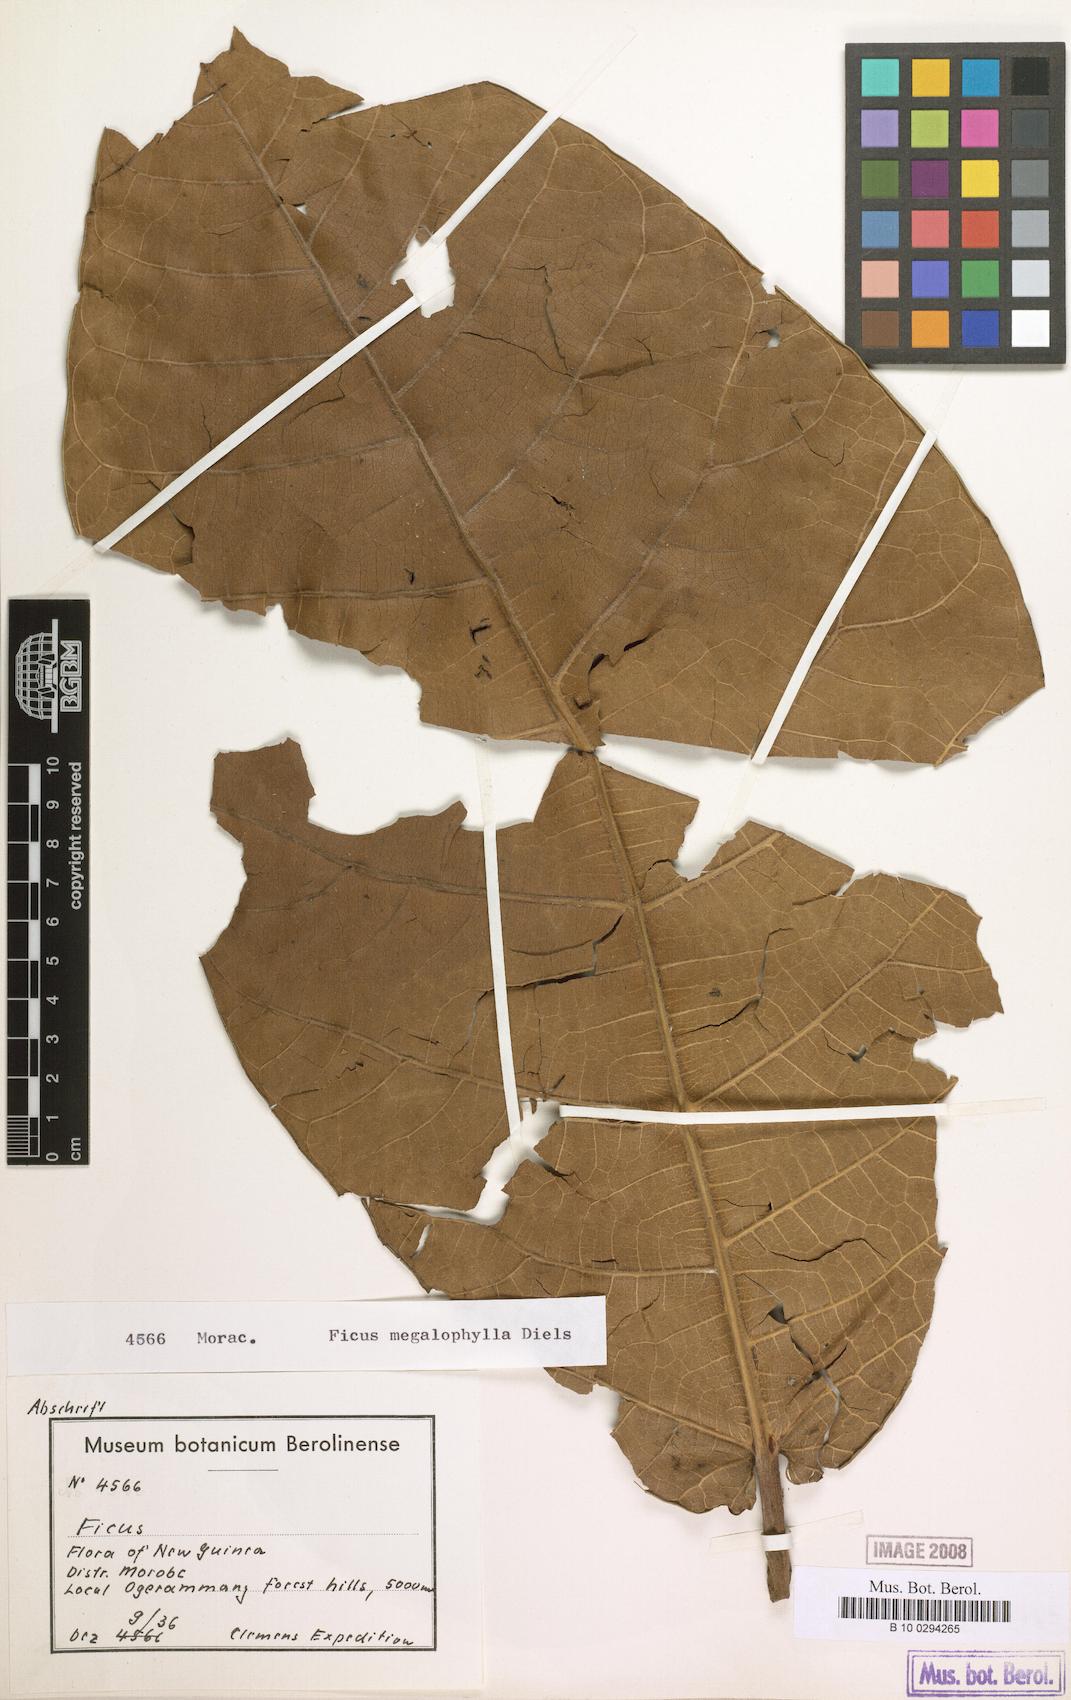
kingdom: Plantae
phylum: Tracheophyta
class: Magnoliopsida
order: Rosales
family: Moraceae
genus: Ficus
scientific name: Ficus megalophylla
